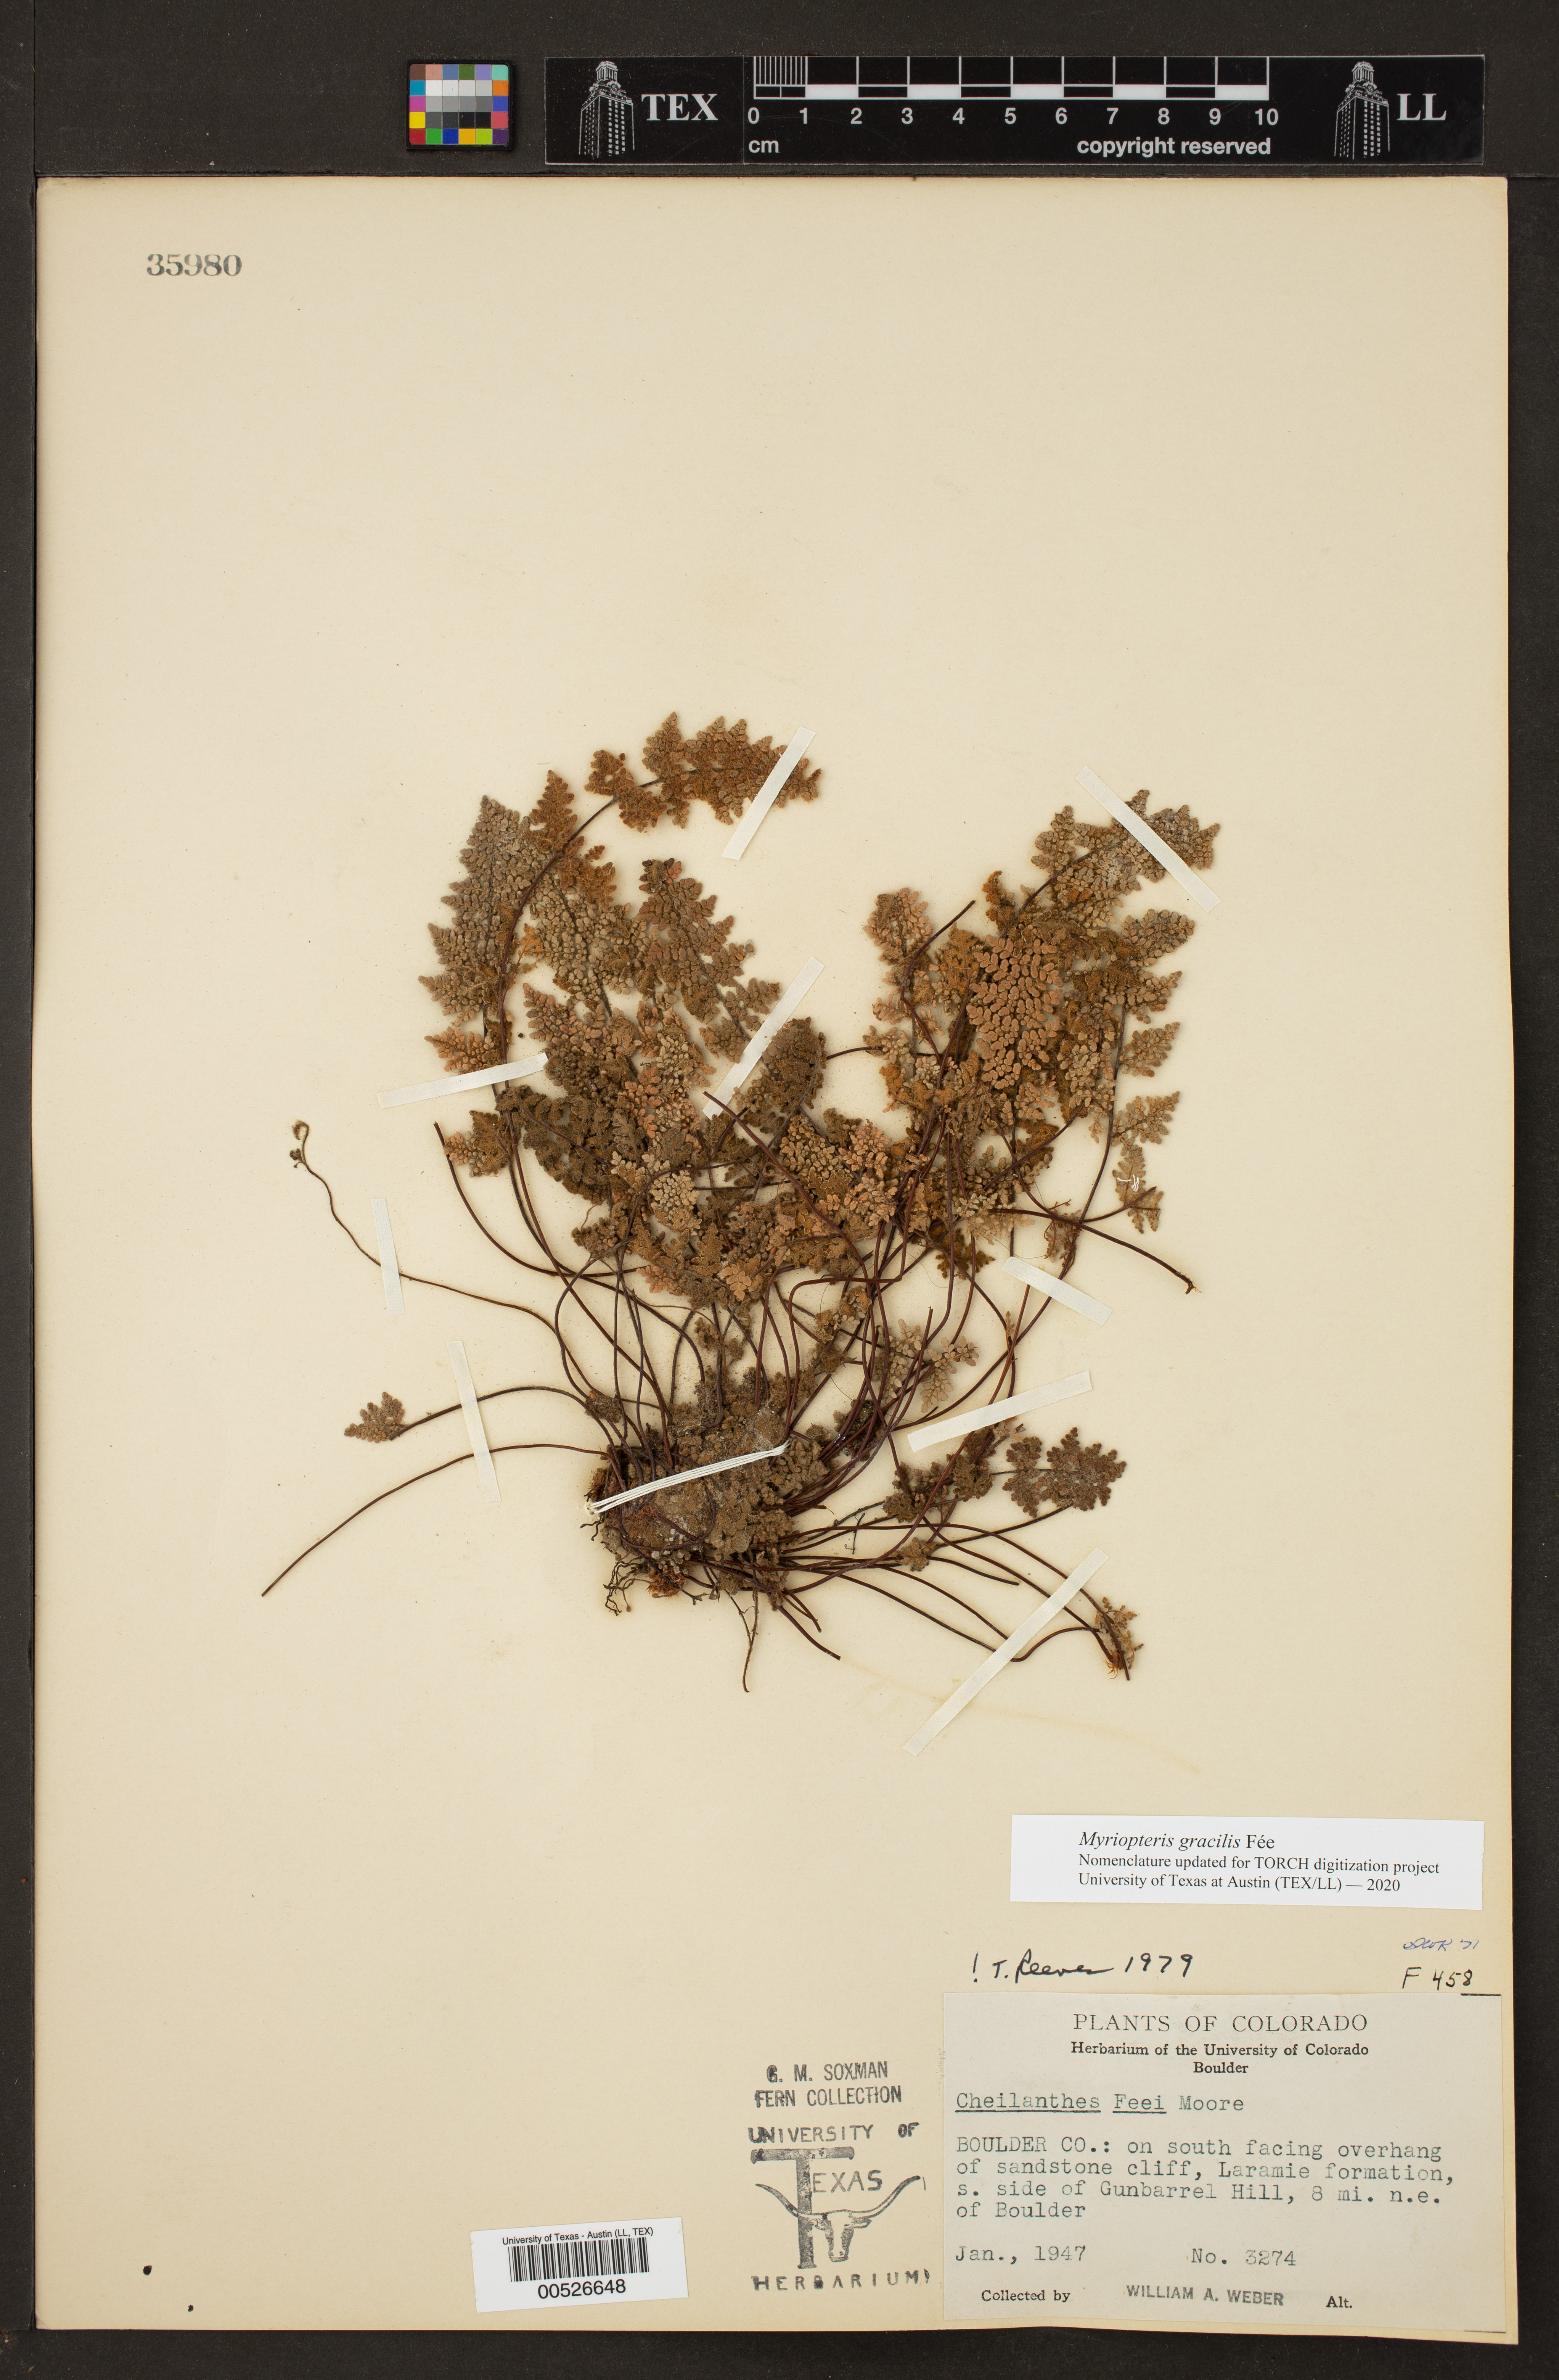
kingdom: Plantae
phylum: Tracheophyta
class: Polypodiopsida
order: Polypodiales
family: Pteridaceae
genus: Myriopteris
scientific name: Myriopteris gracilis
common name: Fee's lip fern
